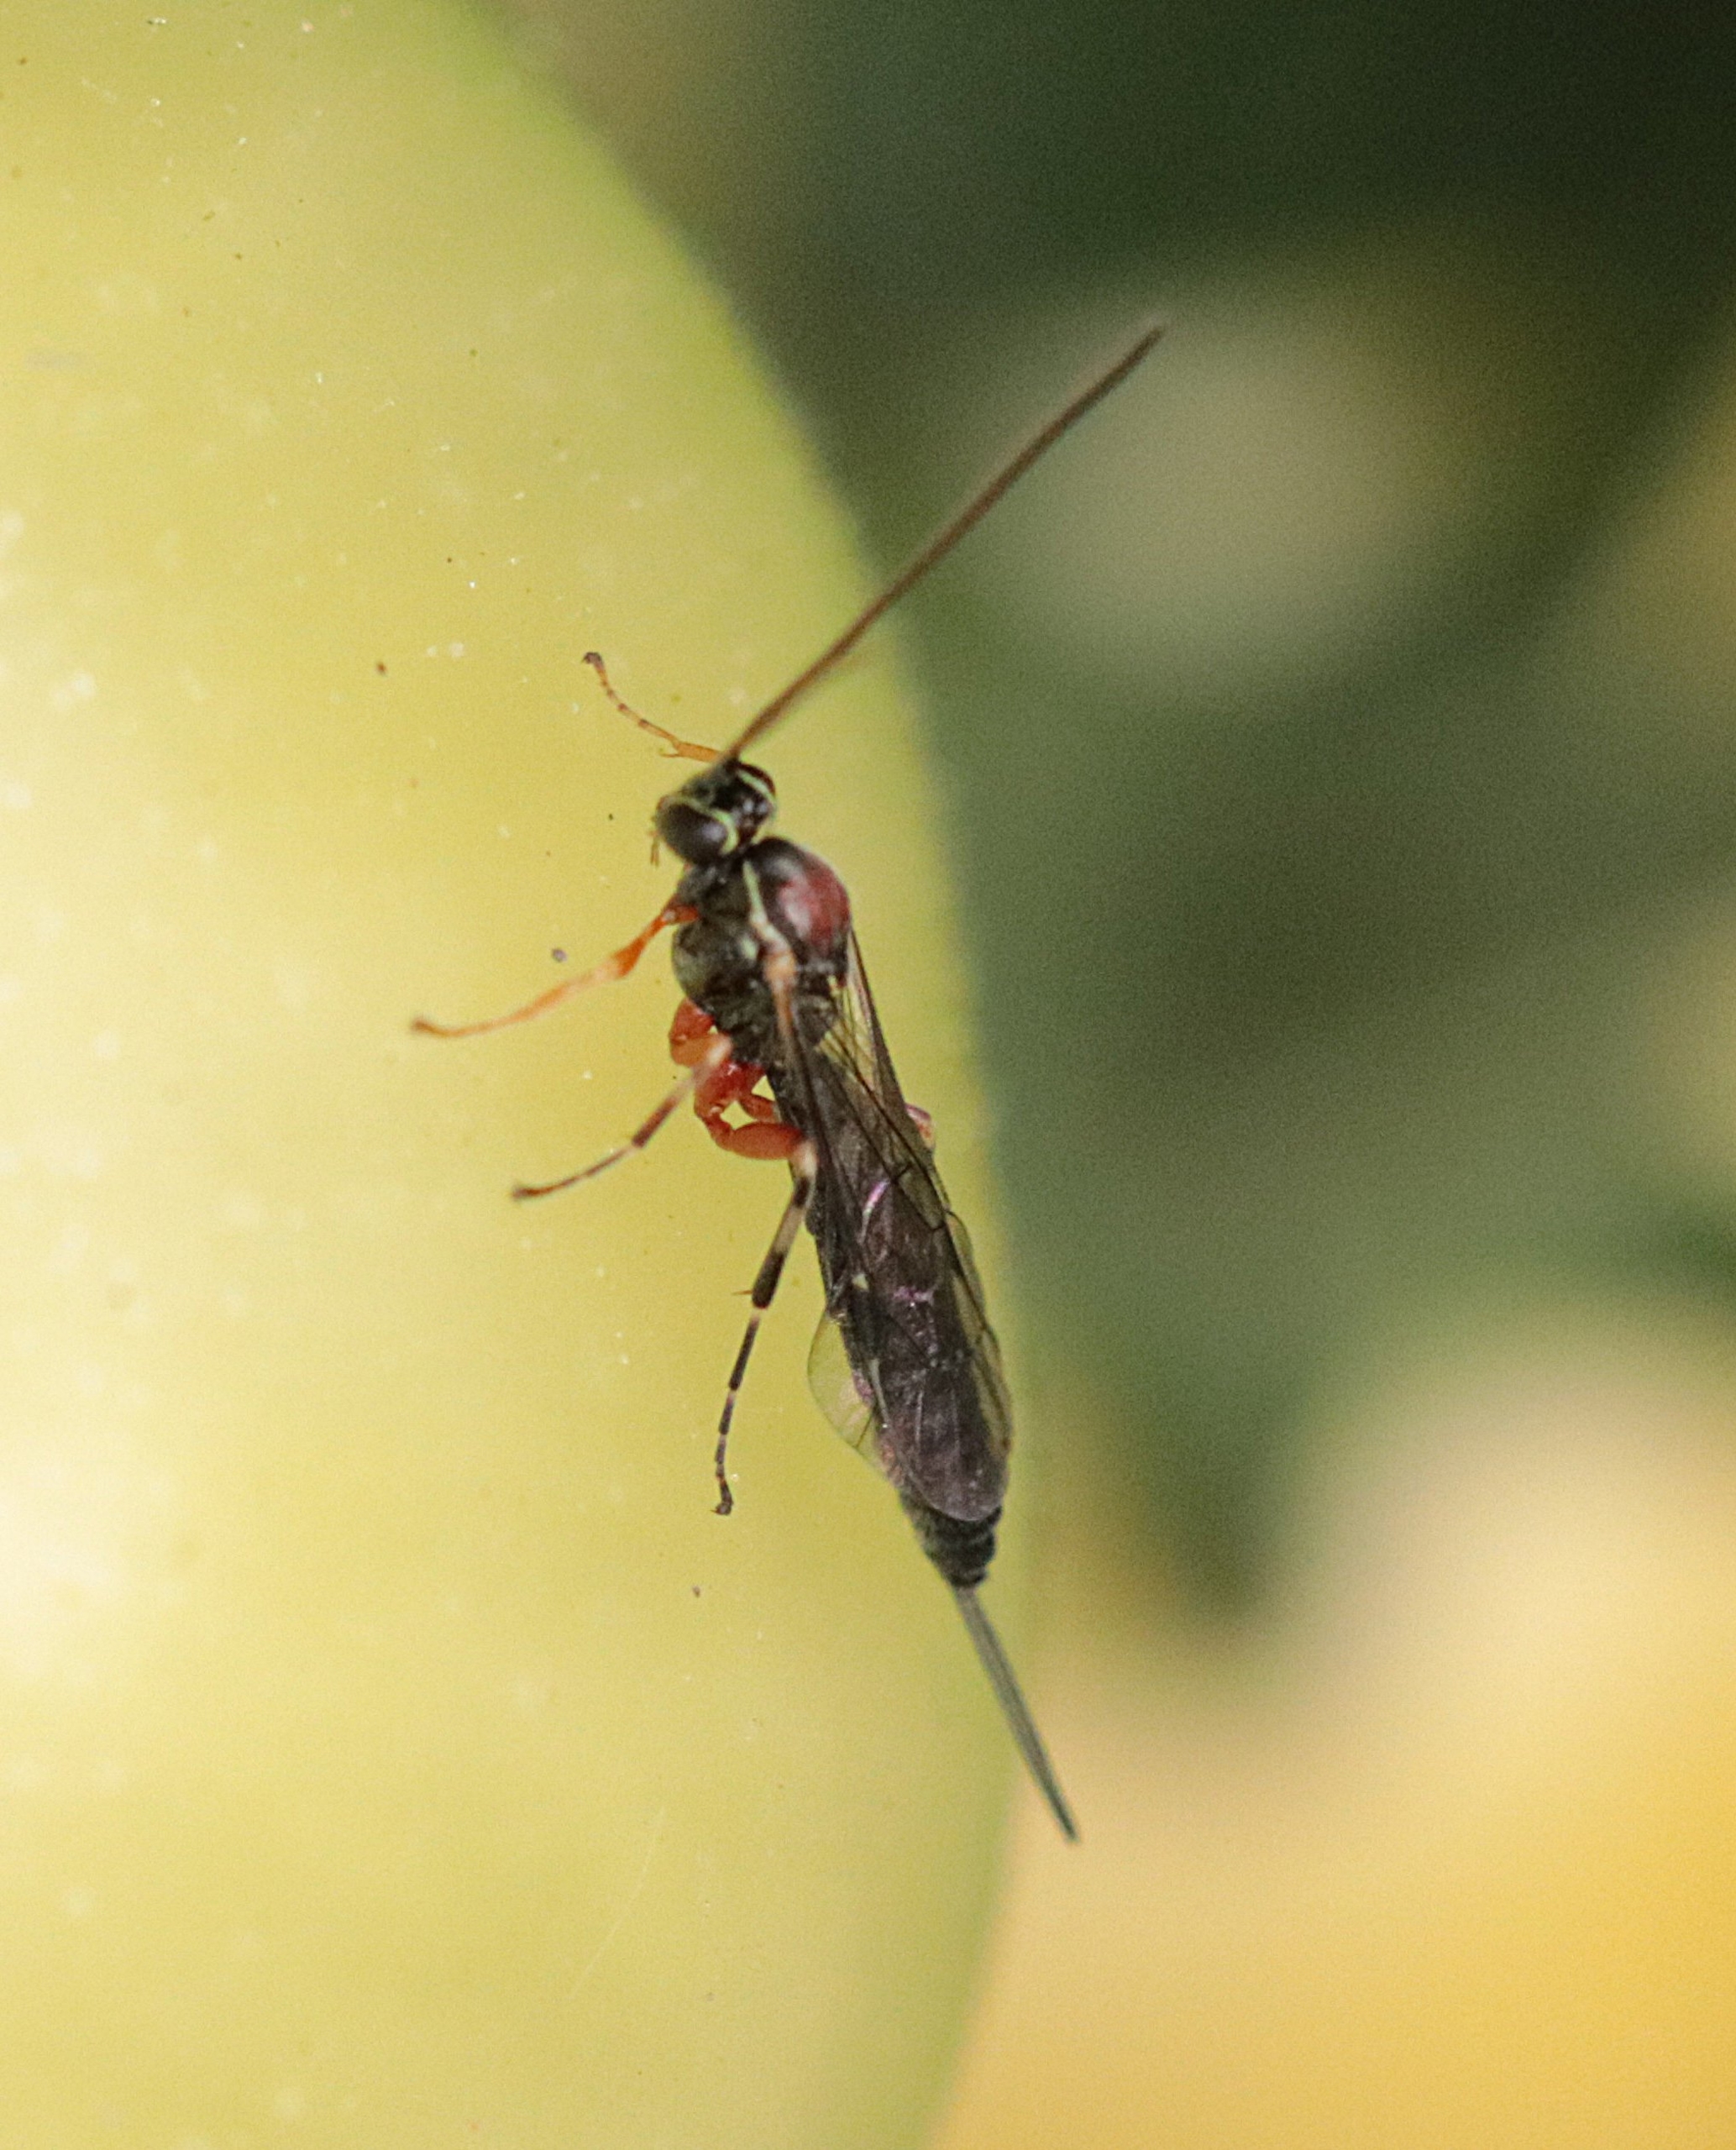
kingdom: Animalia
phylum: Arthropoda
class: Insecta
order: Hymenoptera
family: Ichneumonidae
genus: Tromatobia
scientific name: Tromatobia ornata
